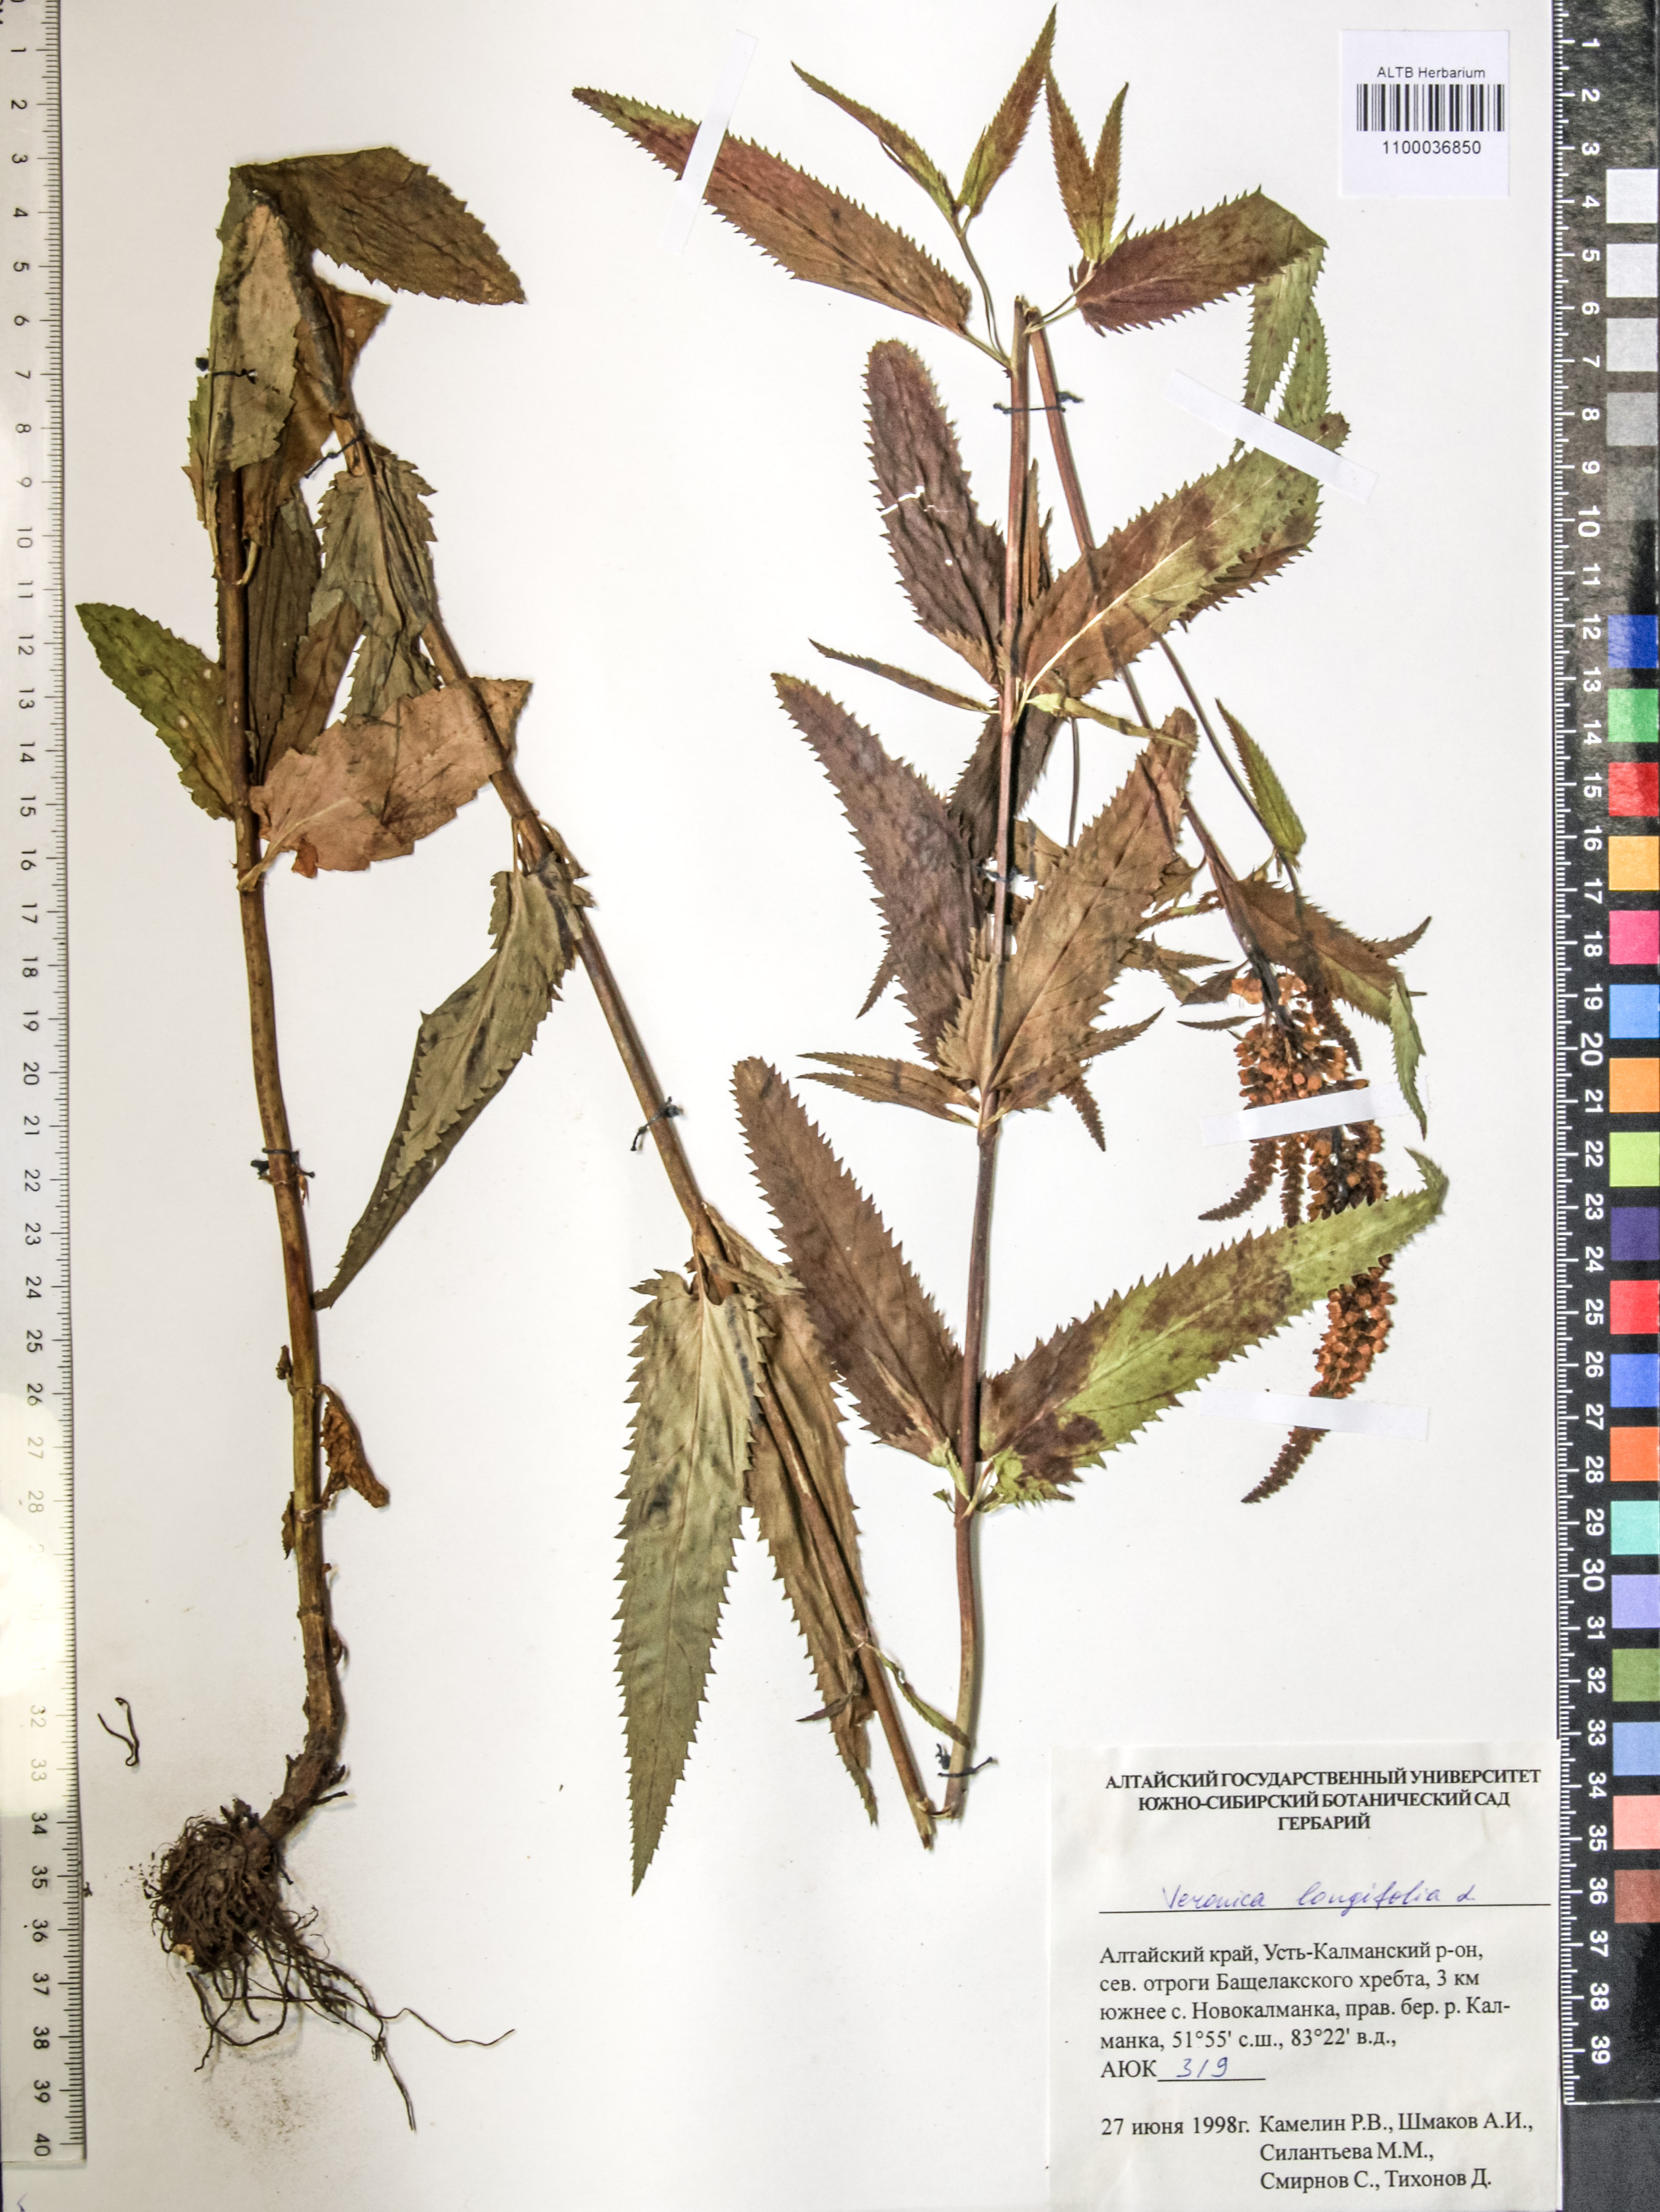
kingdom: Plantae
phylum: Tracheophyta
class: Magnoliopsida
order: Lamiales
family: Plantaginaceae
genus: Veronica
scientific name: Veronica longifolia
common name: Garden speedwell
